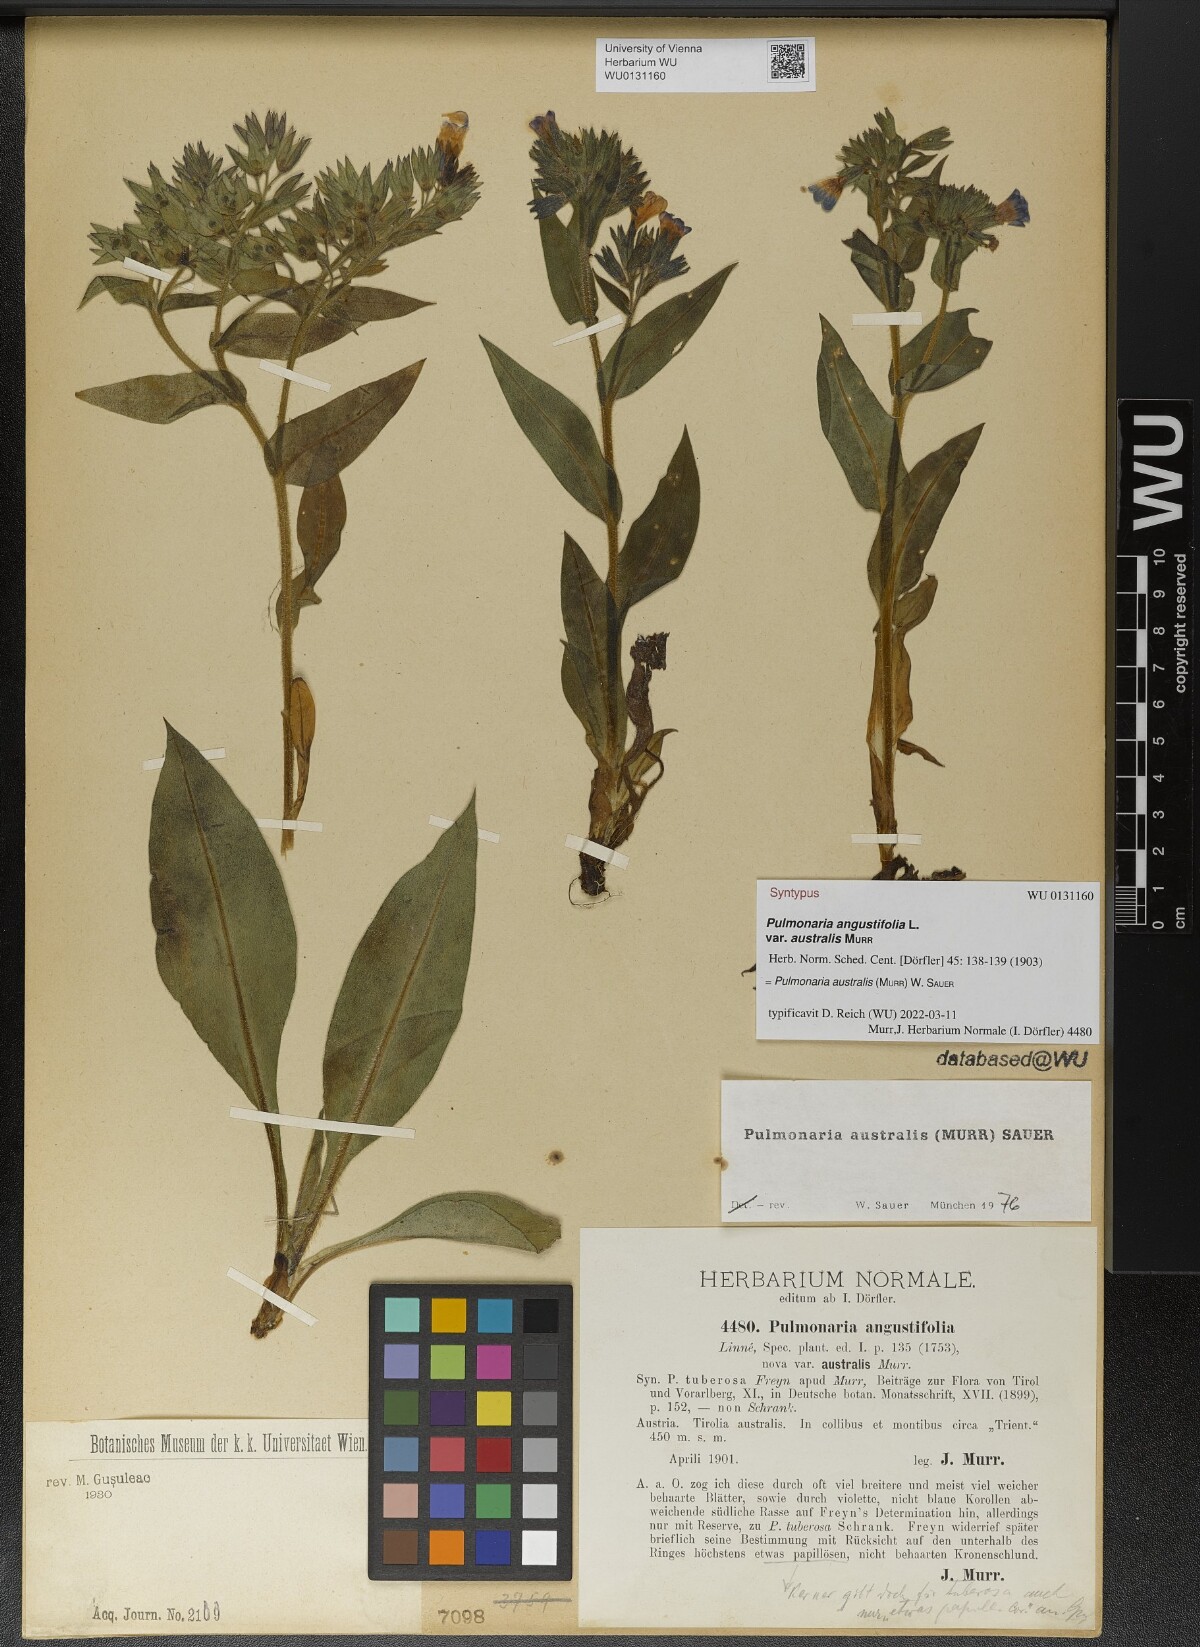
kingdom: Plantae
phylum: Tracheophyta
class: Magnoliopsida
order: Boraginales
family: Boraginaceae
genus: Pulmonaria
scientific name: Pulmonaria australis
